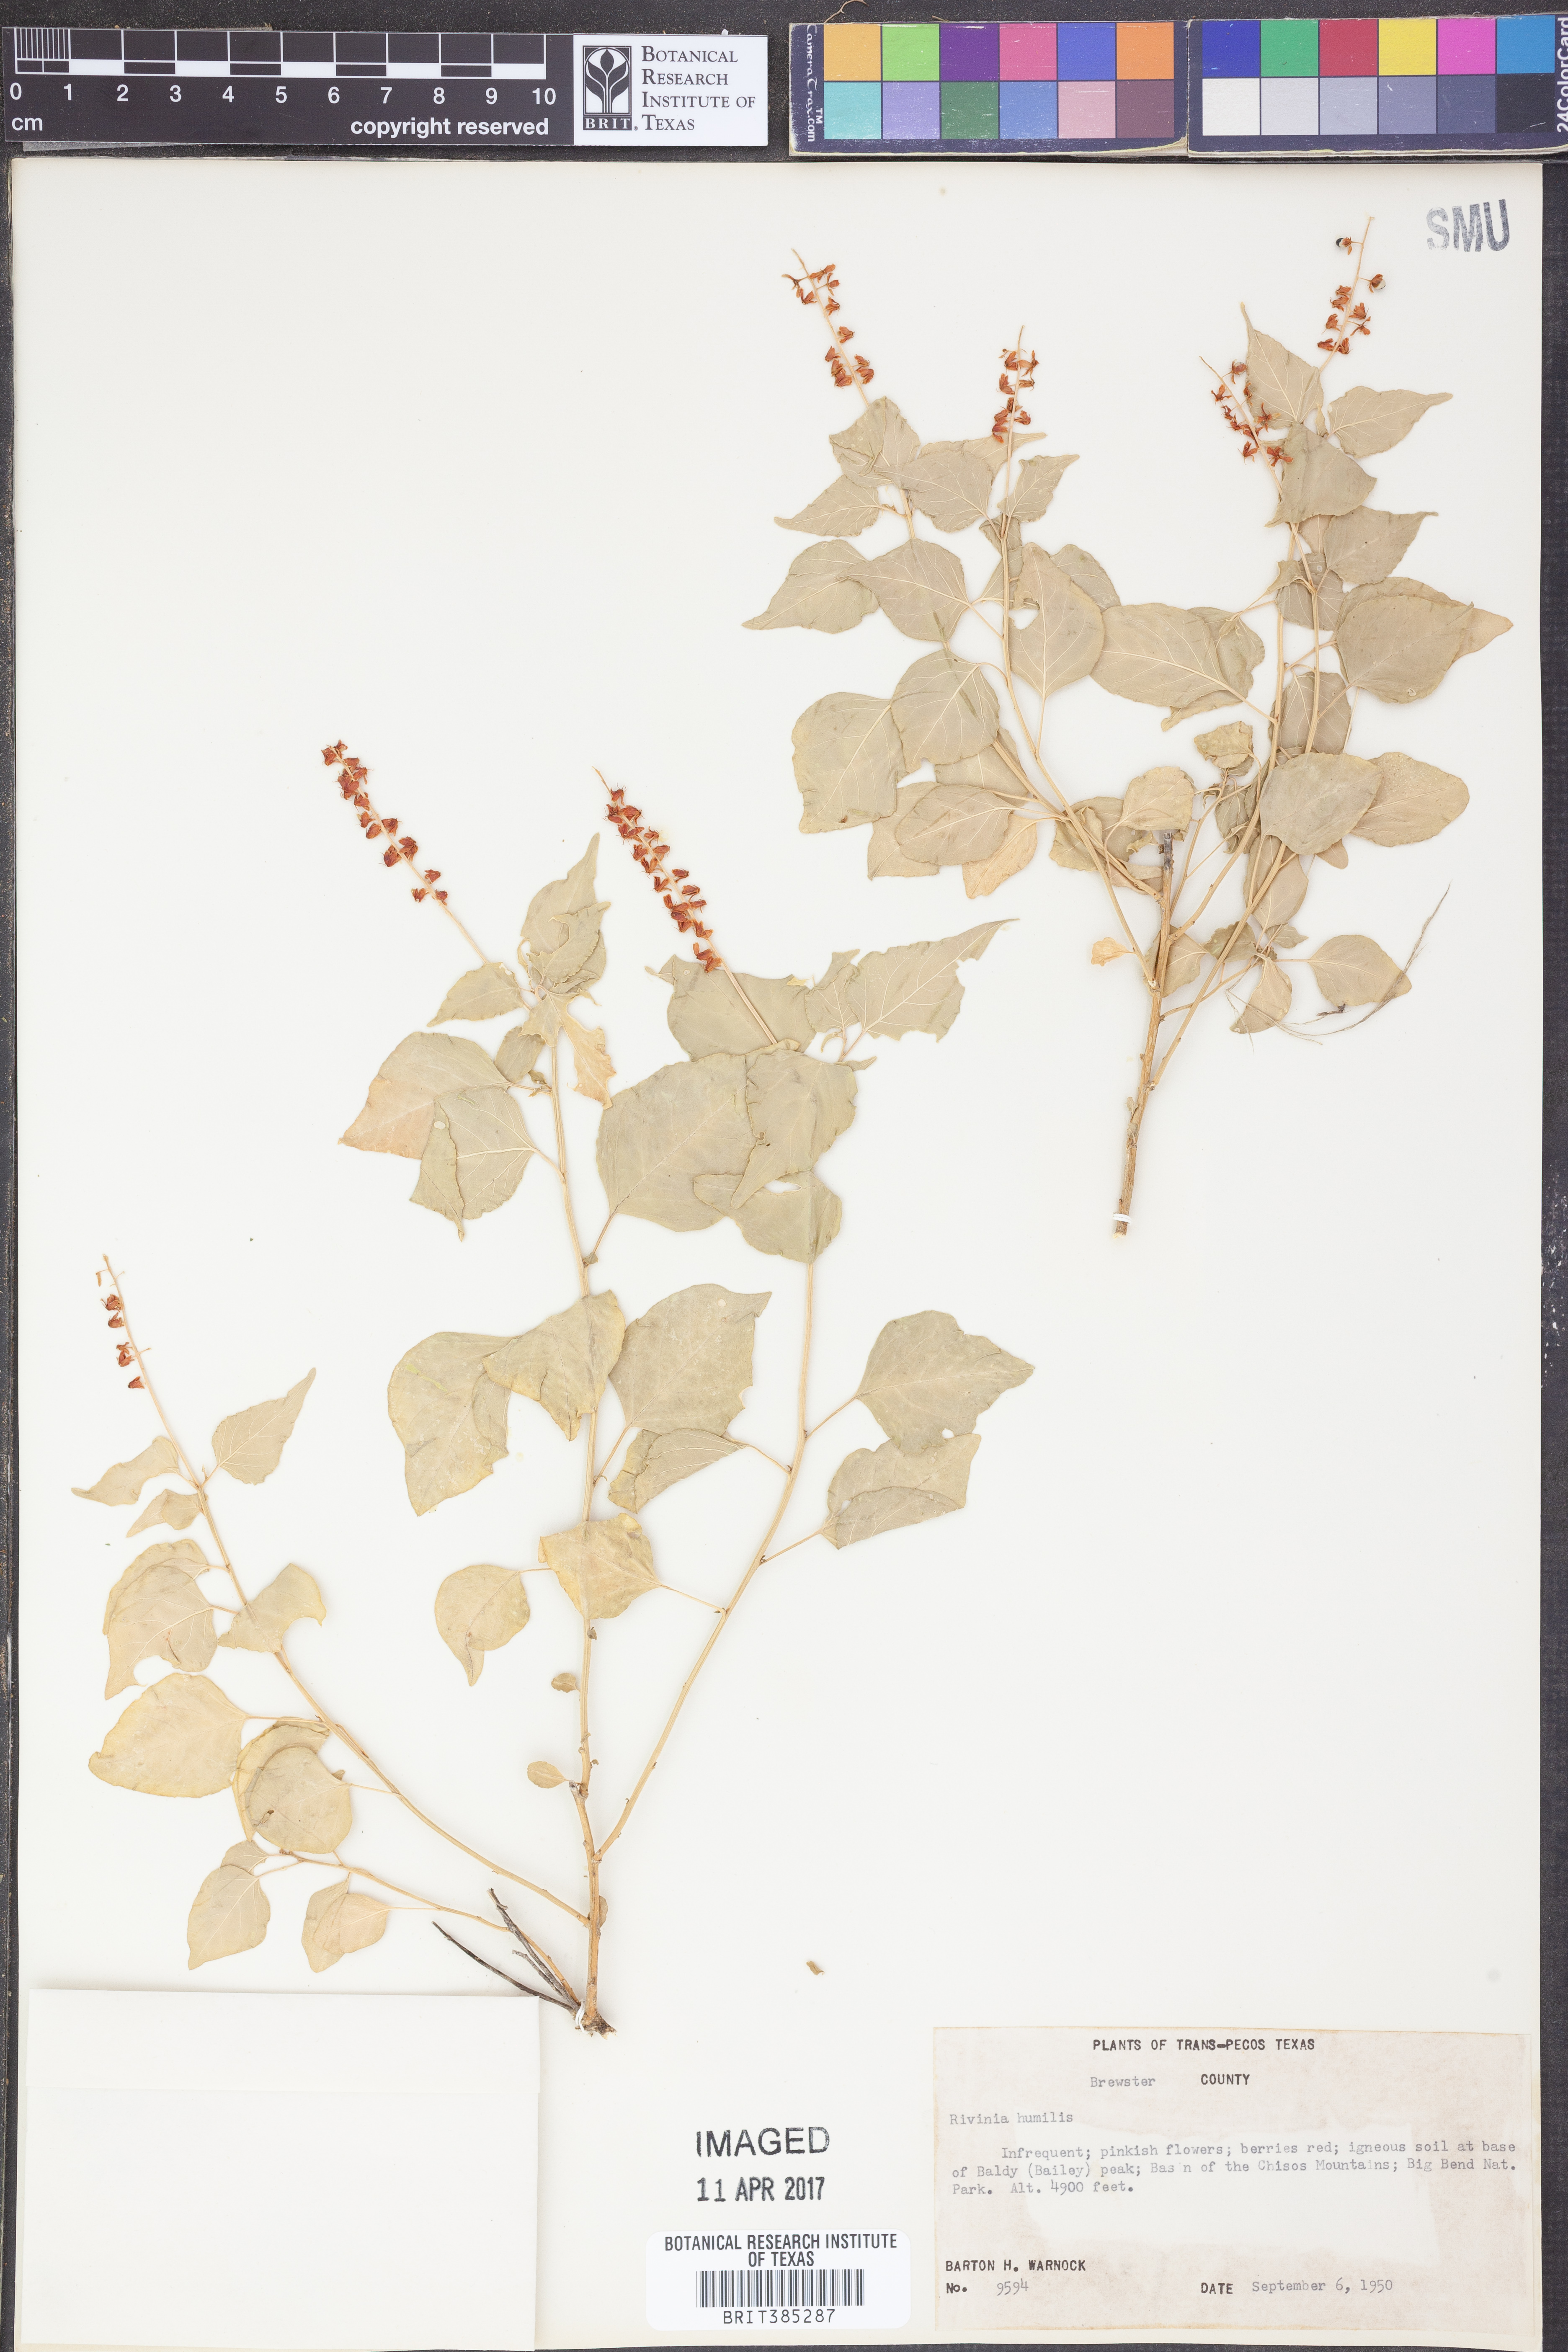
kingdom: Plantae
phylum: Tracheophyta
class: Magnoliopsida
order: Caryophyllales
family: Phytolaccaceae
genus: Rivina
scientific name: Rivina humilis
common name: Rougeplant
